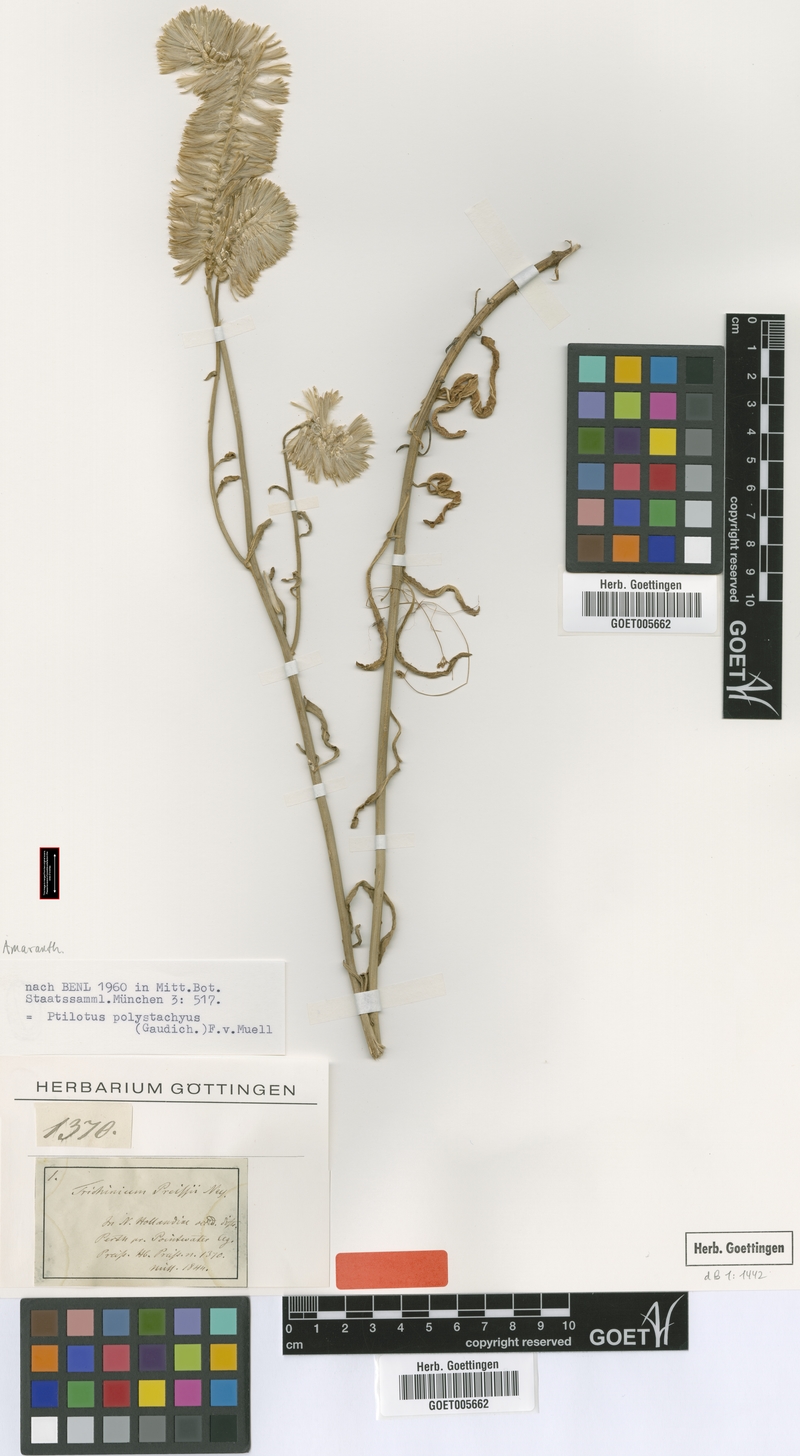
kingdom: Plantae
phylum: Tracheophyta
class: Magnoliopsida
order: Caryophyllales
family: Amaranthaceae
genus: Ptilotus
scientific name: Ptilotus polystachyus
